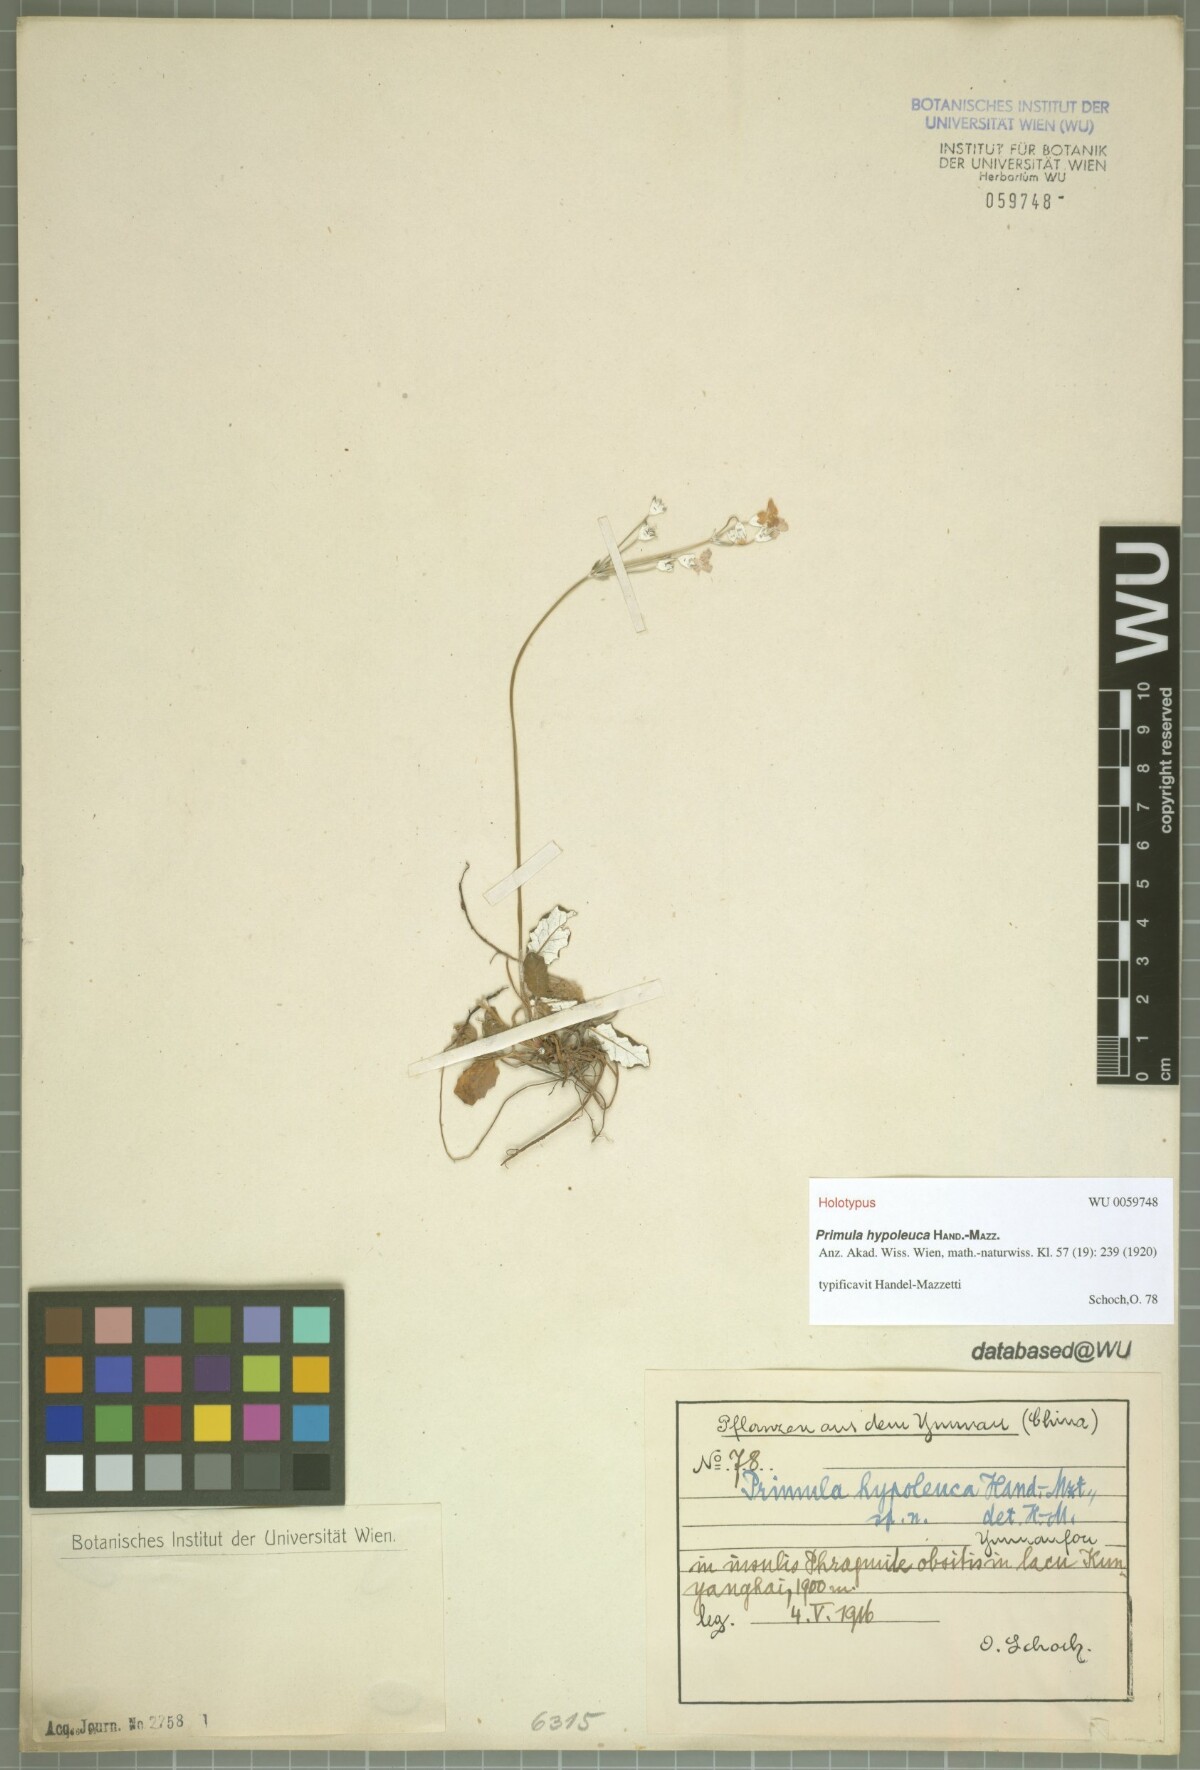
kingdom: Plantae
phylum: Tracheophyta
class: Magnoliopsida
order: Ericales
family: Primulaceae
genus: Primula
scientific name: Primula hypoleuca
